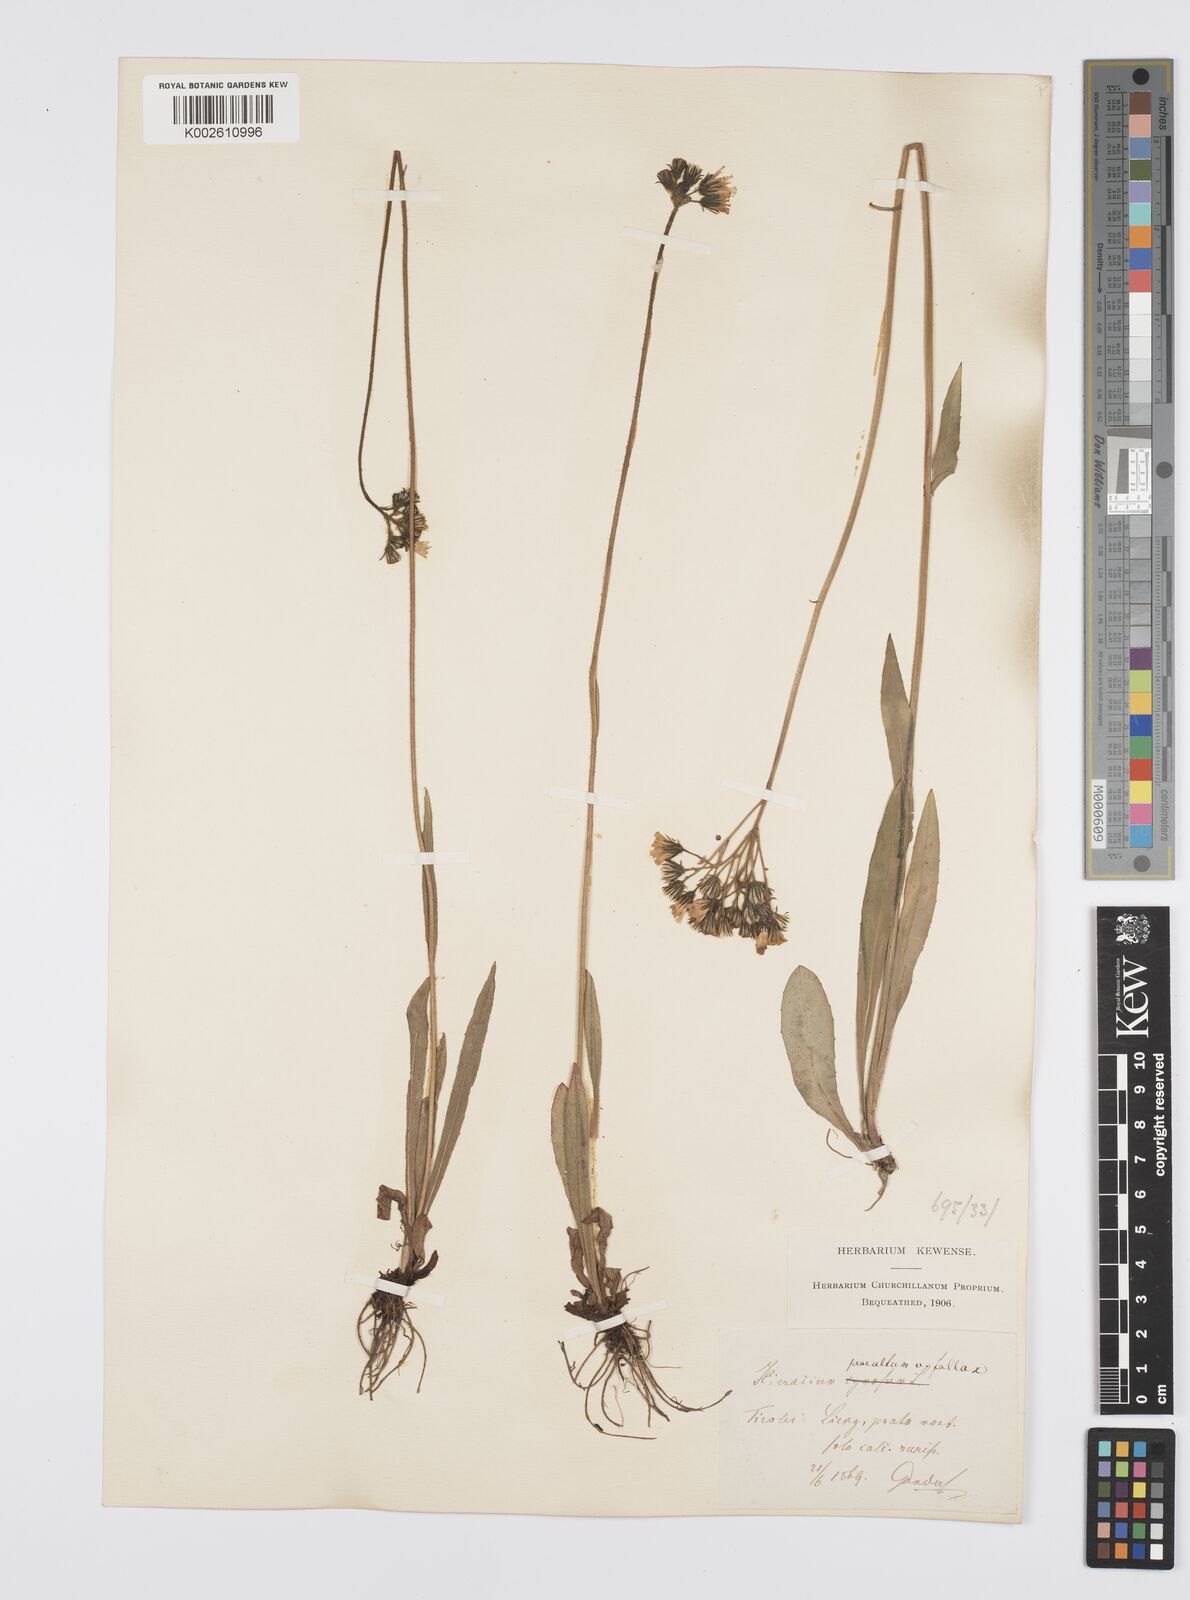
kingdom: Plantae
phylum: Tracheophyta
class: Magnoliopsida
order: Asterales
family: Asteraceae
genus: Pilosella
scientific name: Pilosella piloselloides
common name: Glaucous king-devil
